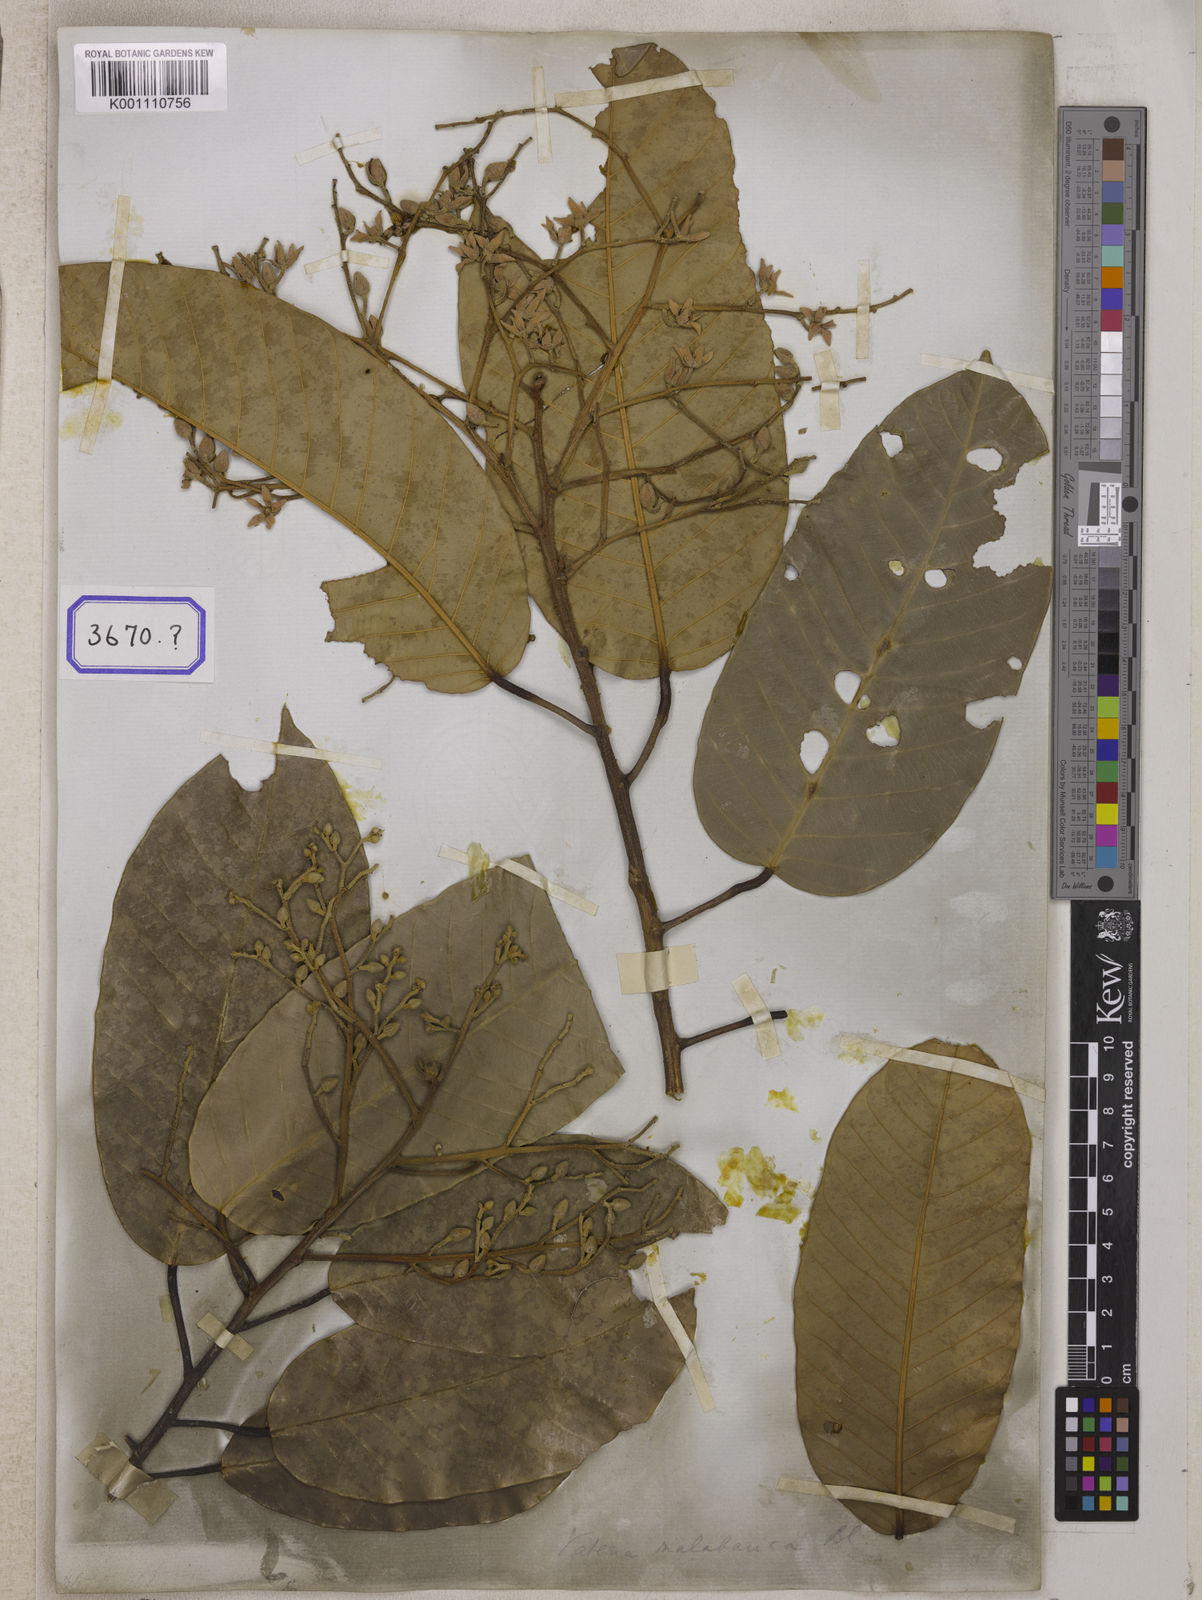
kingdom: Plantae
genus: Valeria
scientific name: Valeria
